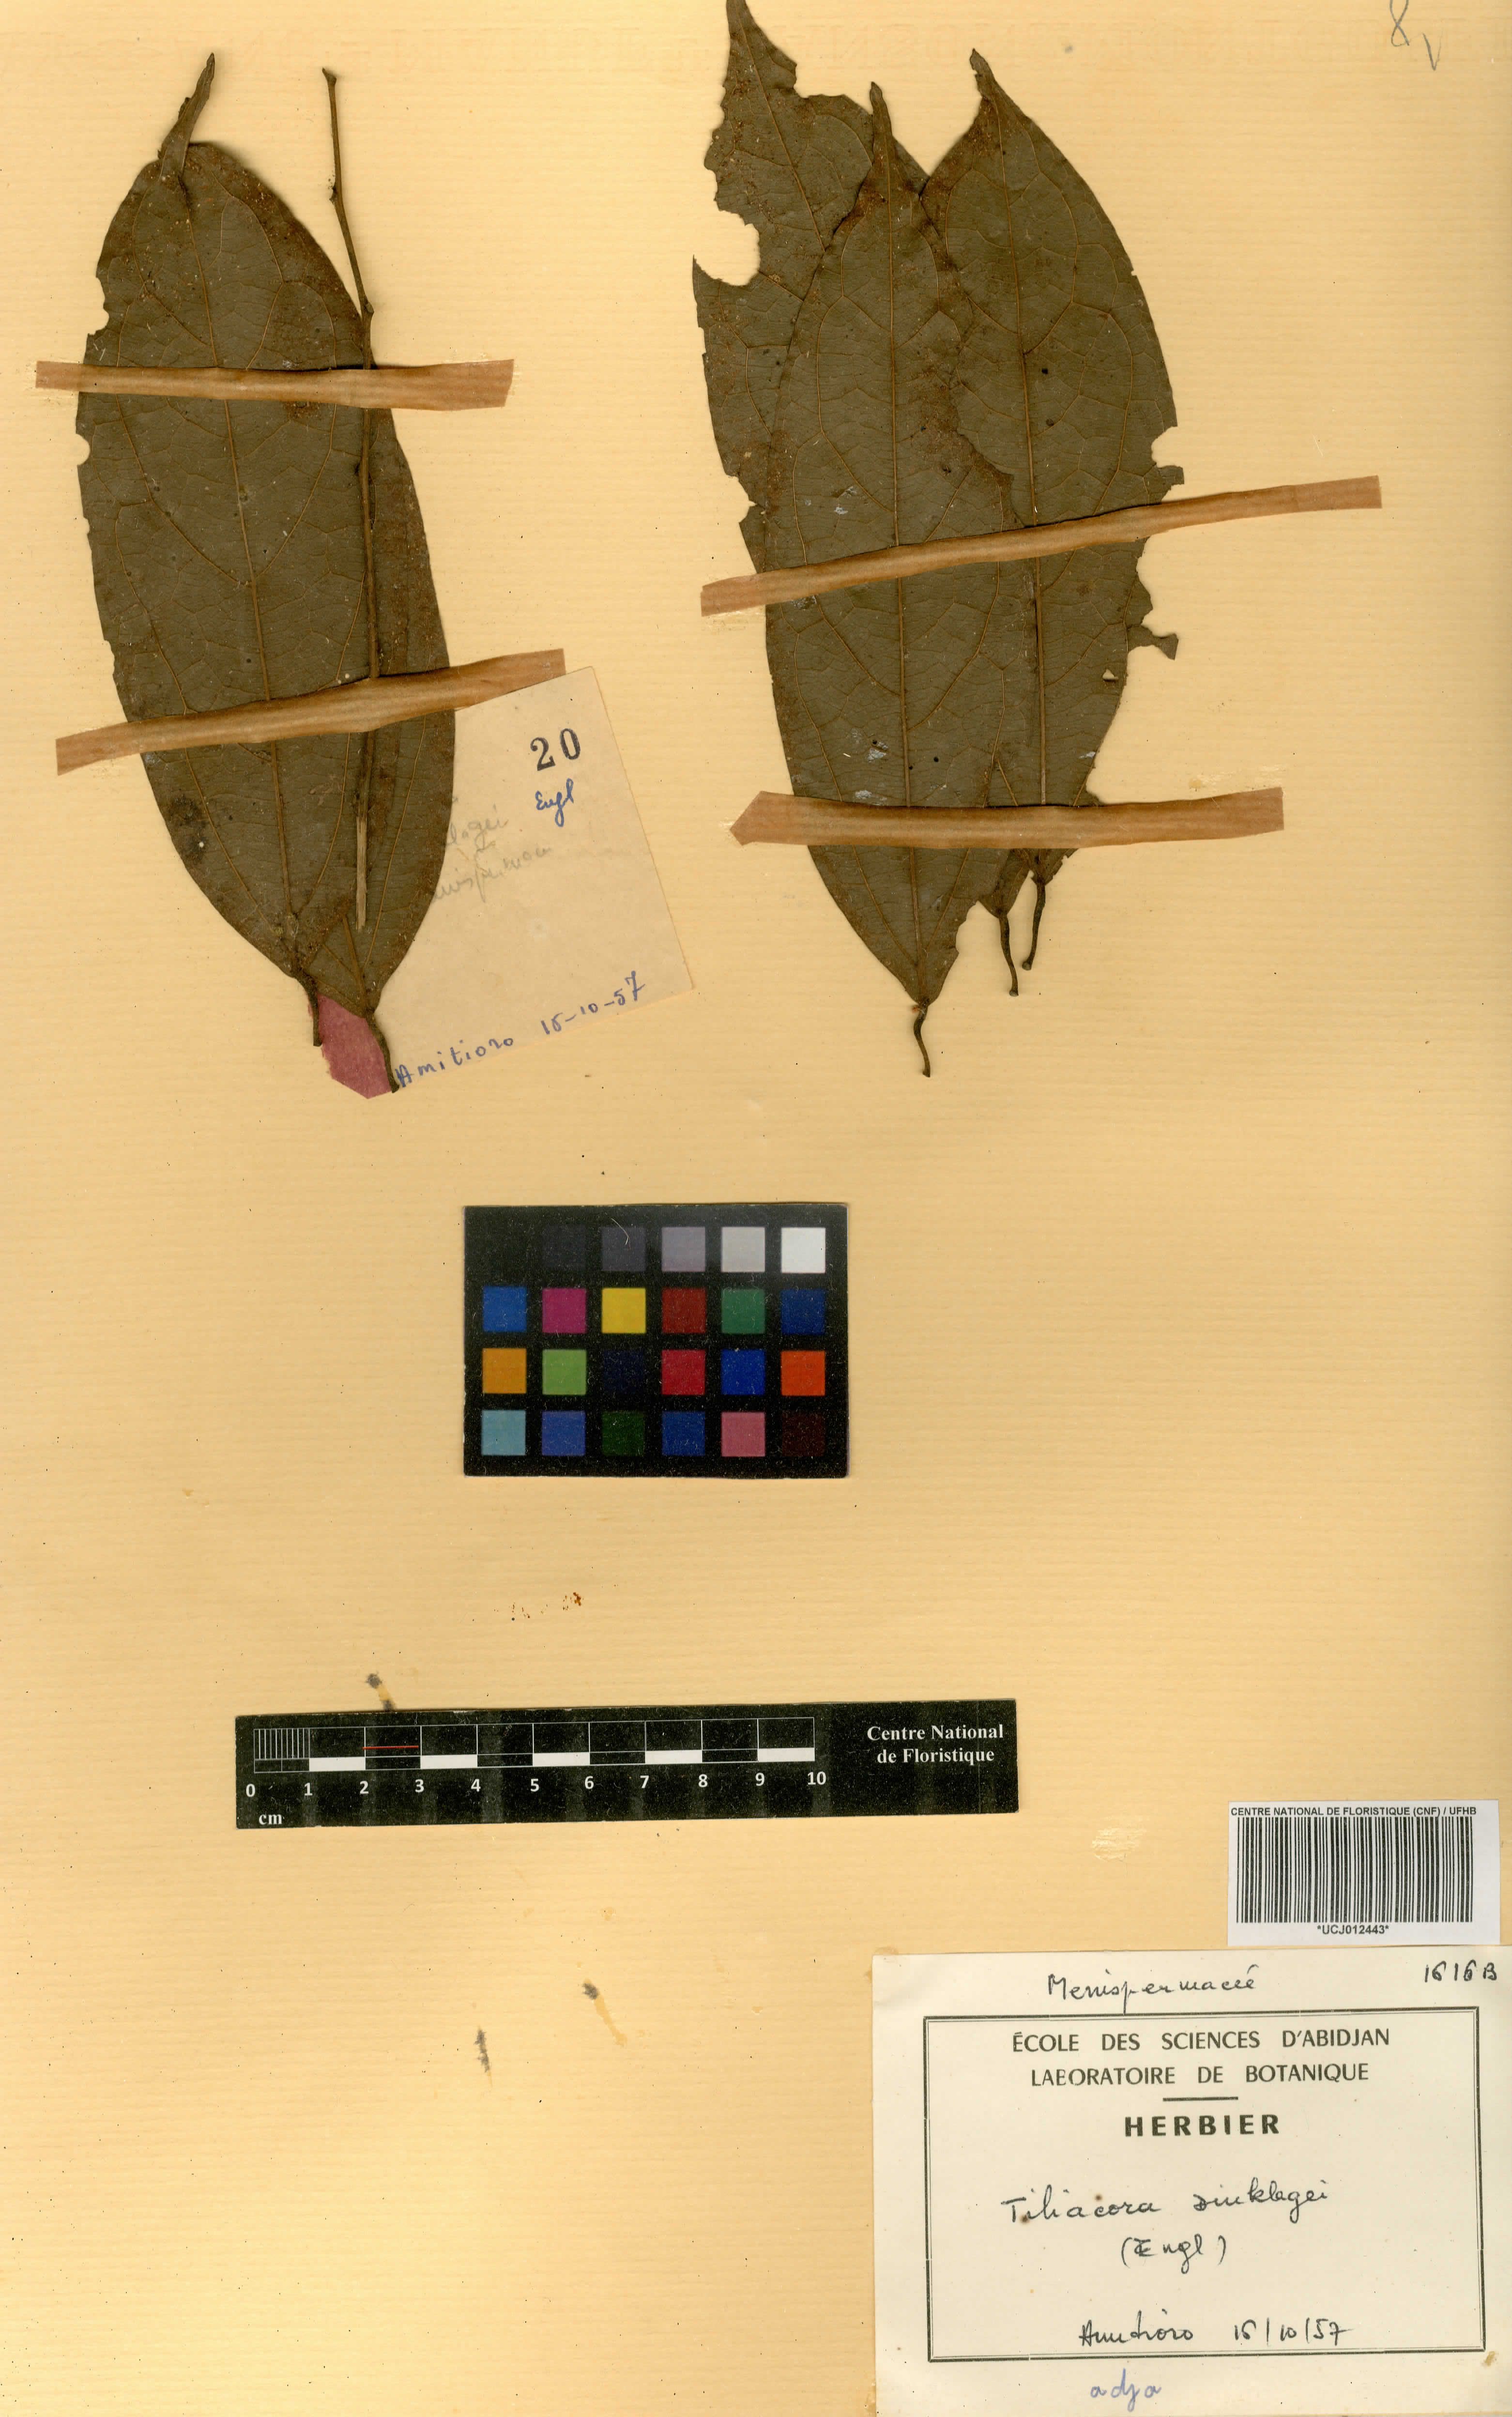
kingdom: Plantae
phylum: Tracheophyta
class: Magnoliopsida
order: Ranunculales
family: Menispermaceae
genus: Tiliacora
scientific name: Tiliacora dinklagei
